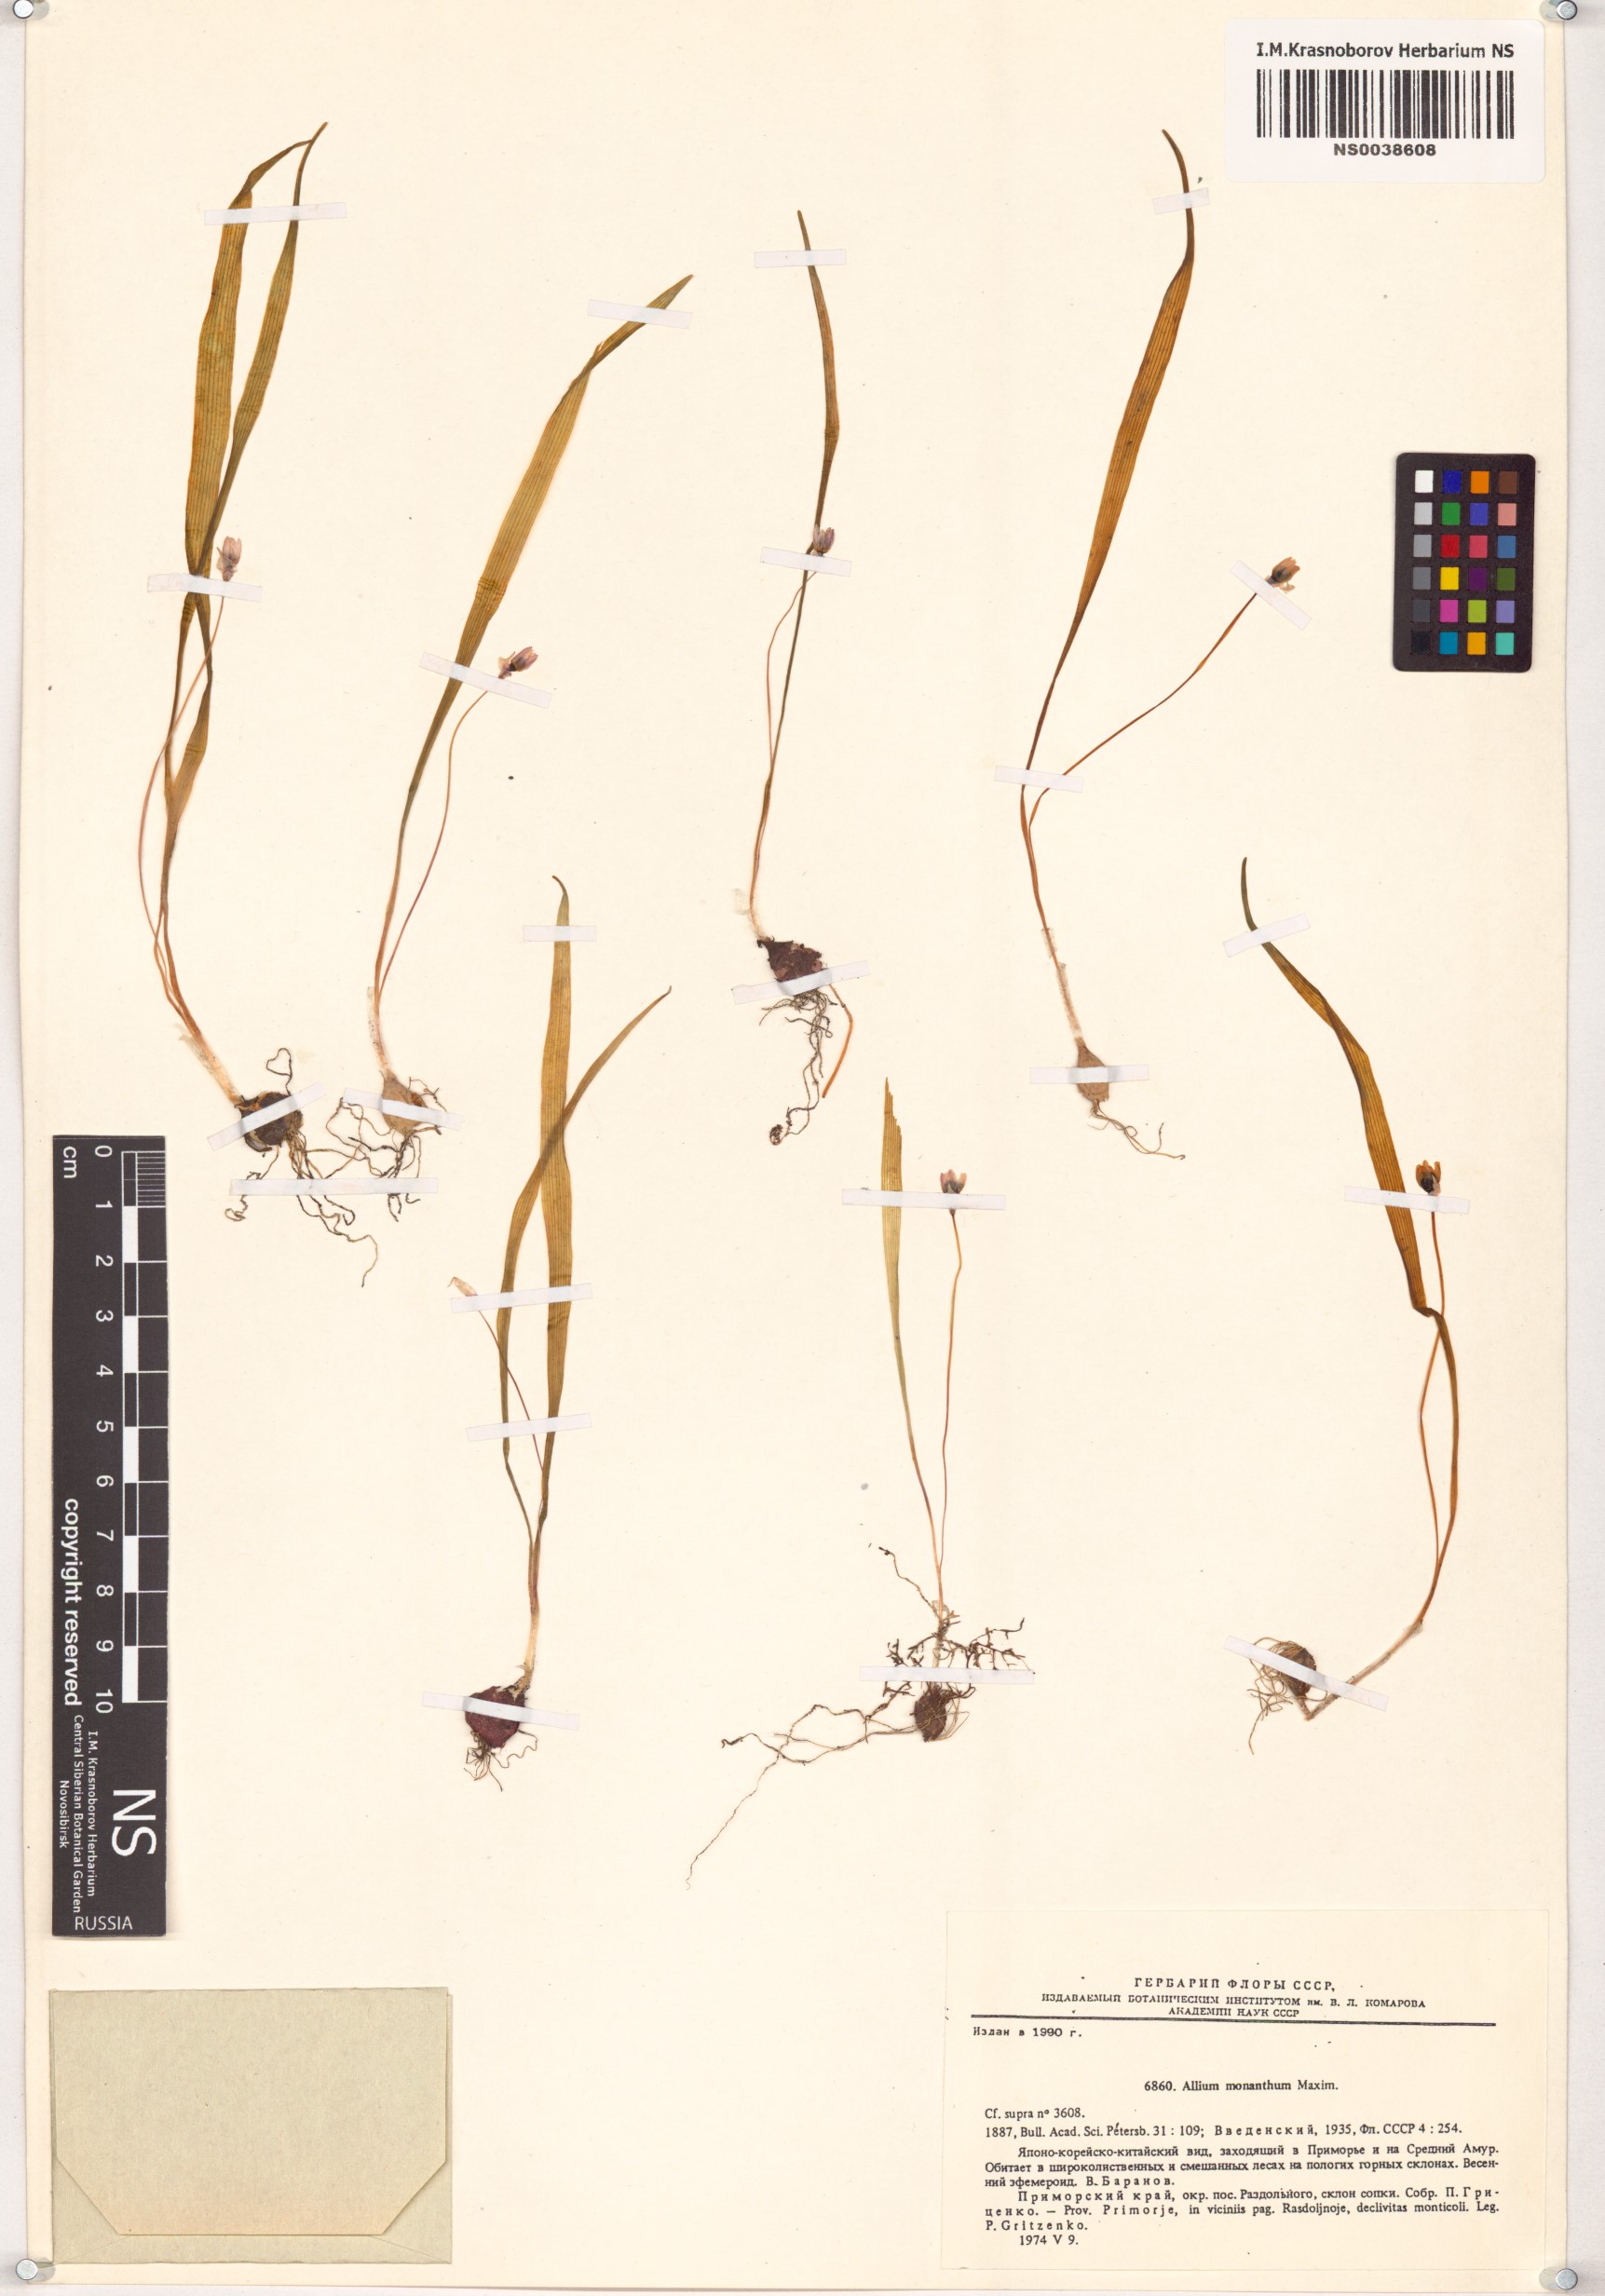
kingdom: Plantae
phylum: Tracheophyta
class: Liliopsida
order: Asparagales
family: Amaryllidaceae
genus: Allium
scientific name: Allium monanthum
